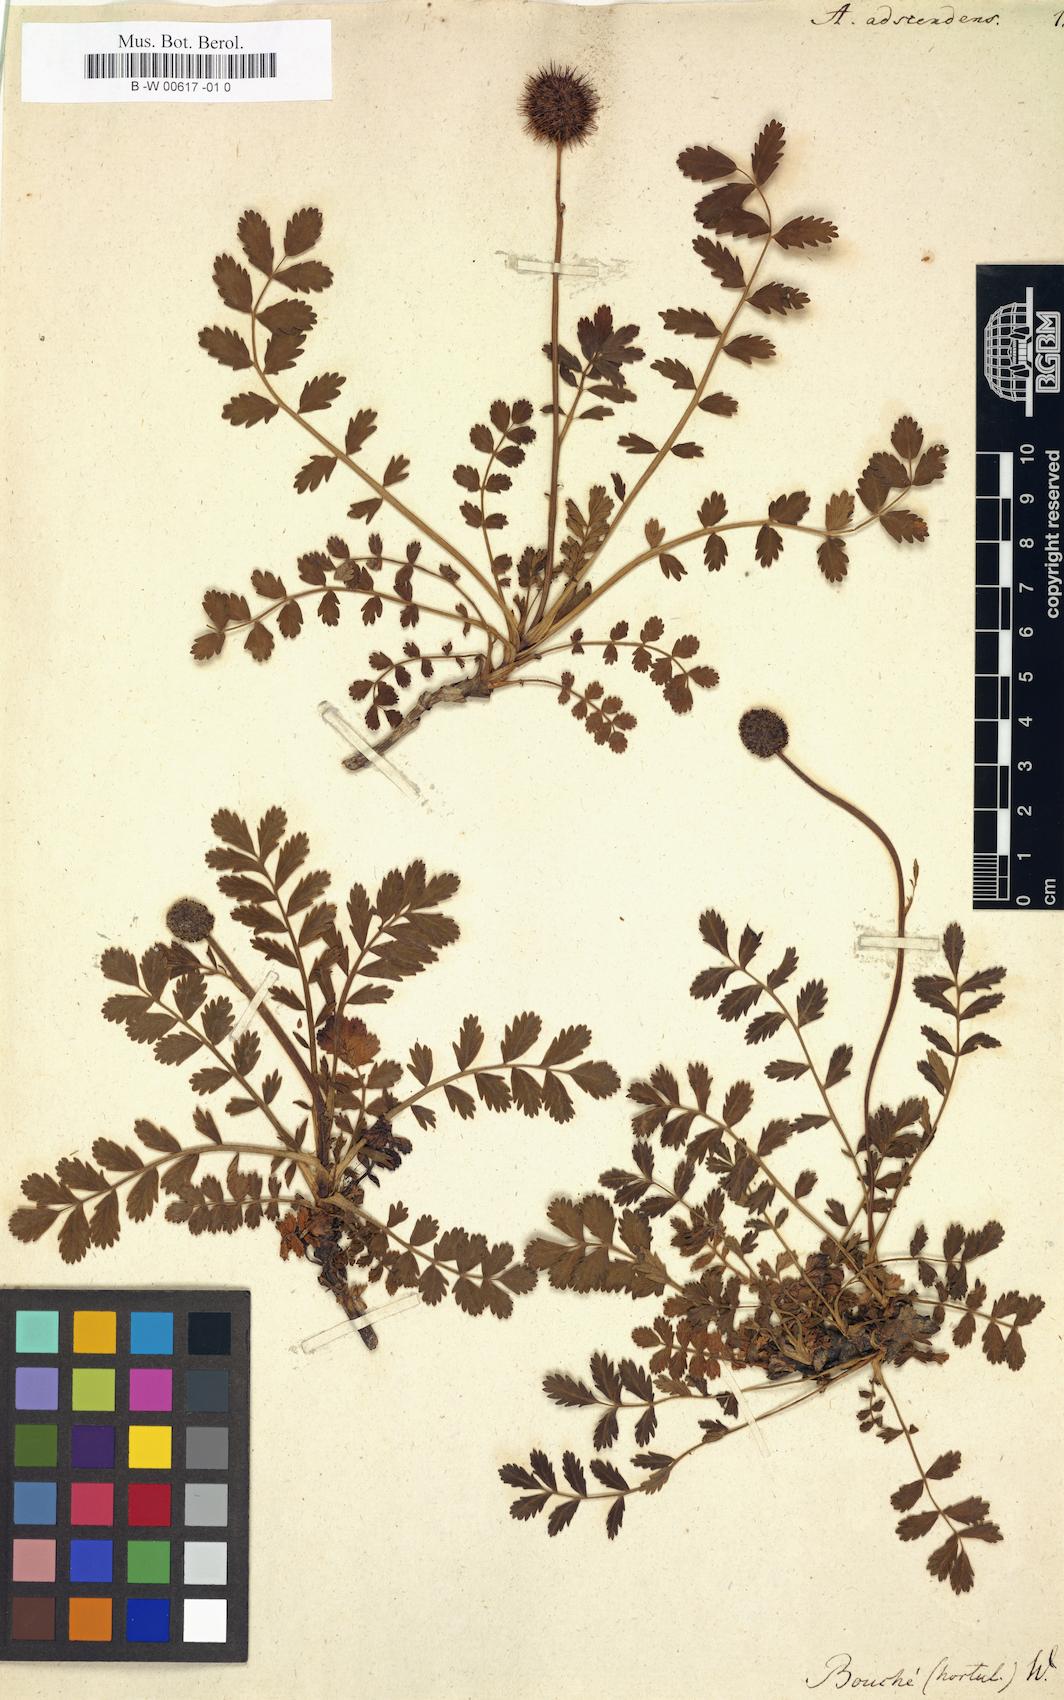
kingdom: Plantae
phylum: Tracheophyta
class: Magnoliopsida
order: Rosales
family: Rosaceae
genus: Acaena
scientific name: Acaena magellanica
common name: New zealand burr
